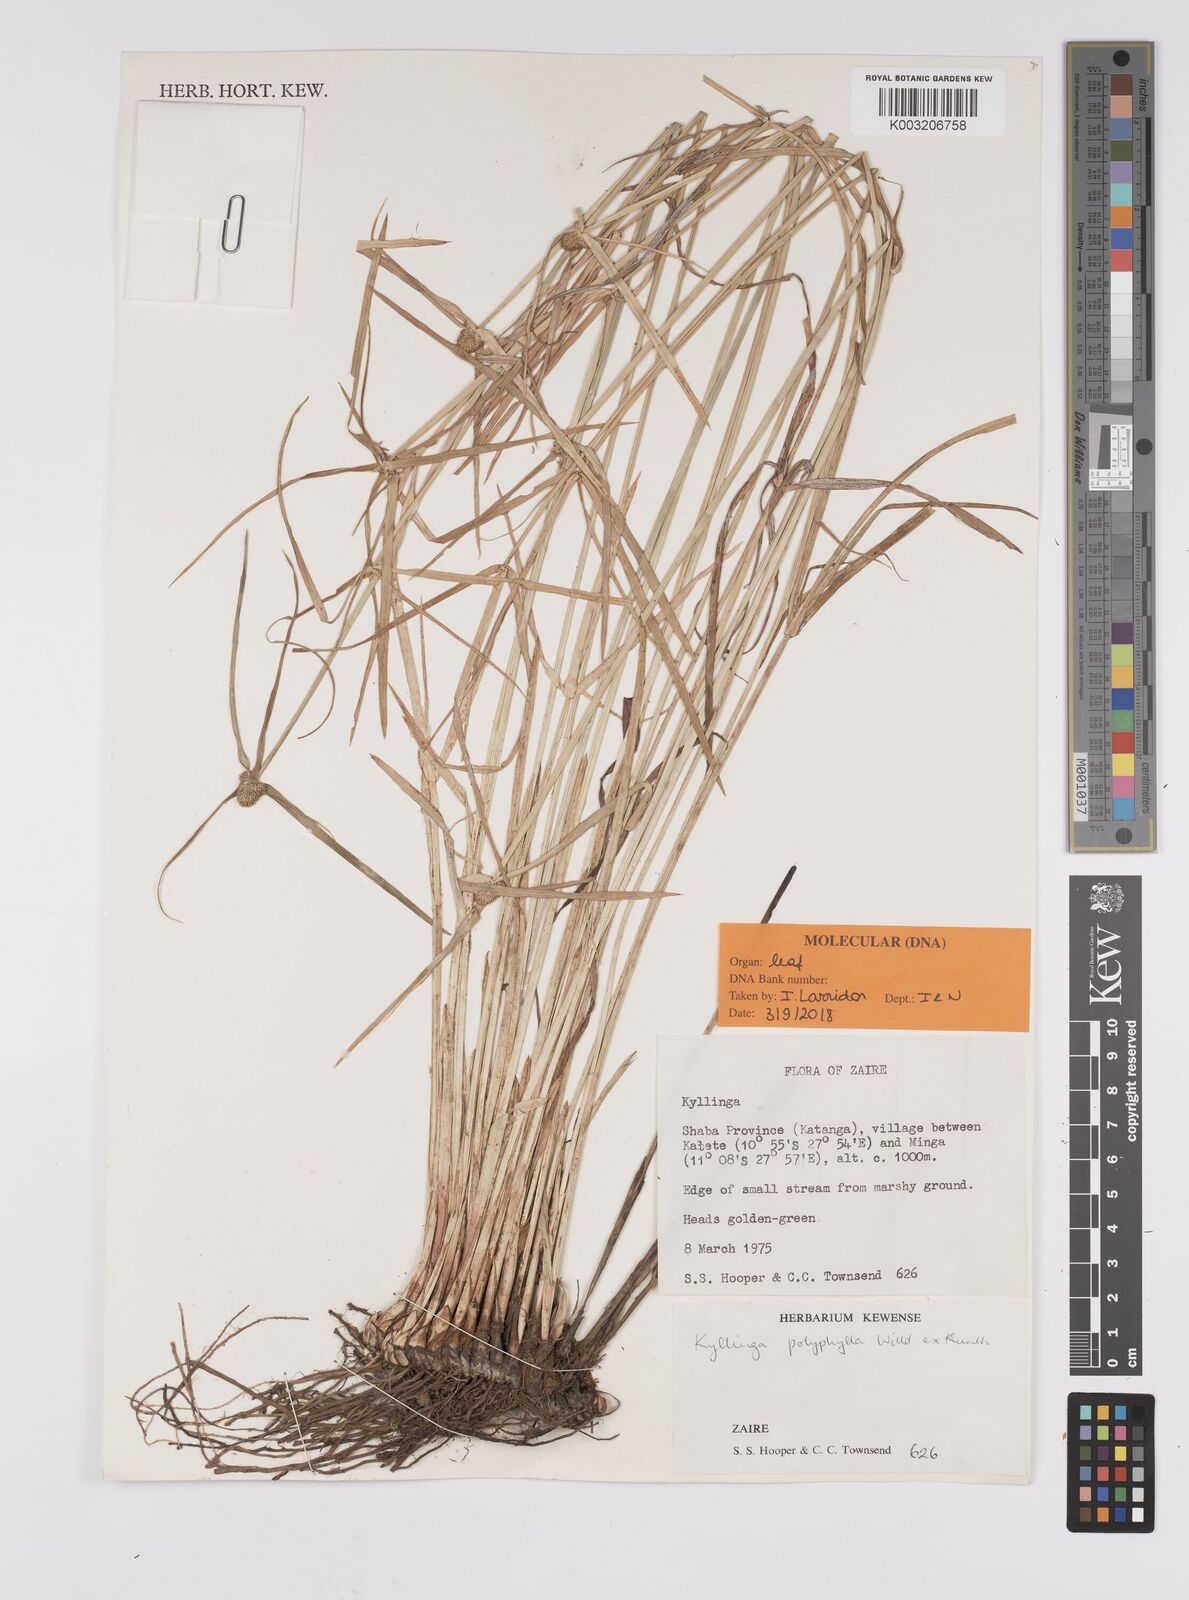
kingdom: Plantae
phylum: Tracheophyta
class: Liliopsida
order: Poales
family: Cyperaceae
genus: Cyperus
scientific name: Cyperus
